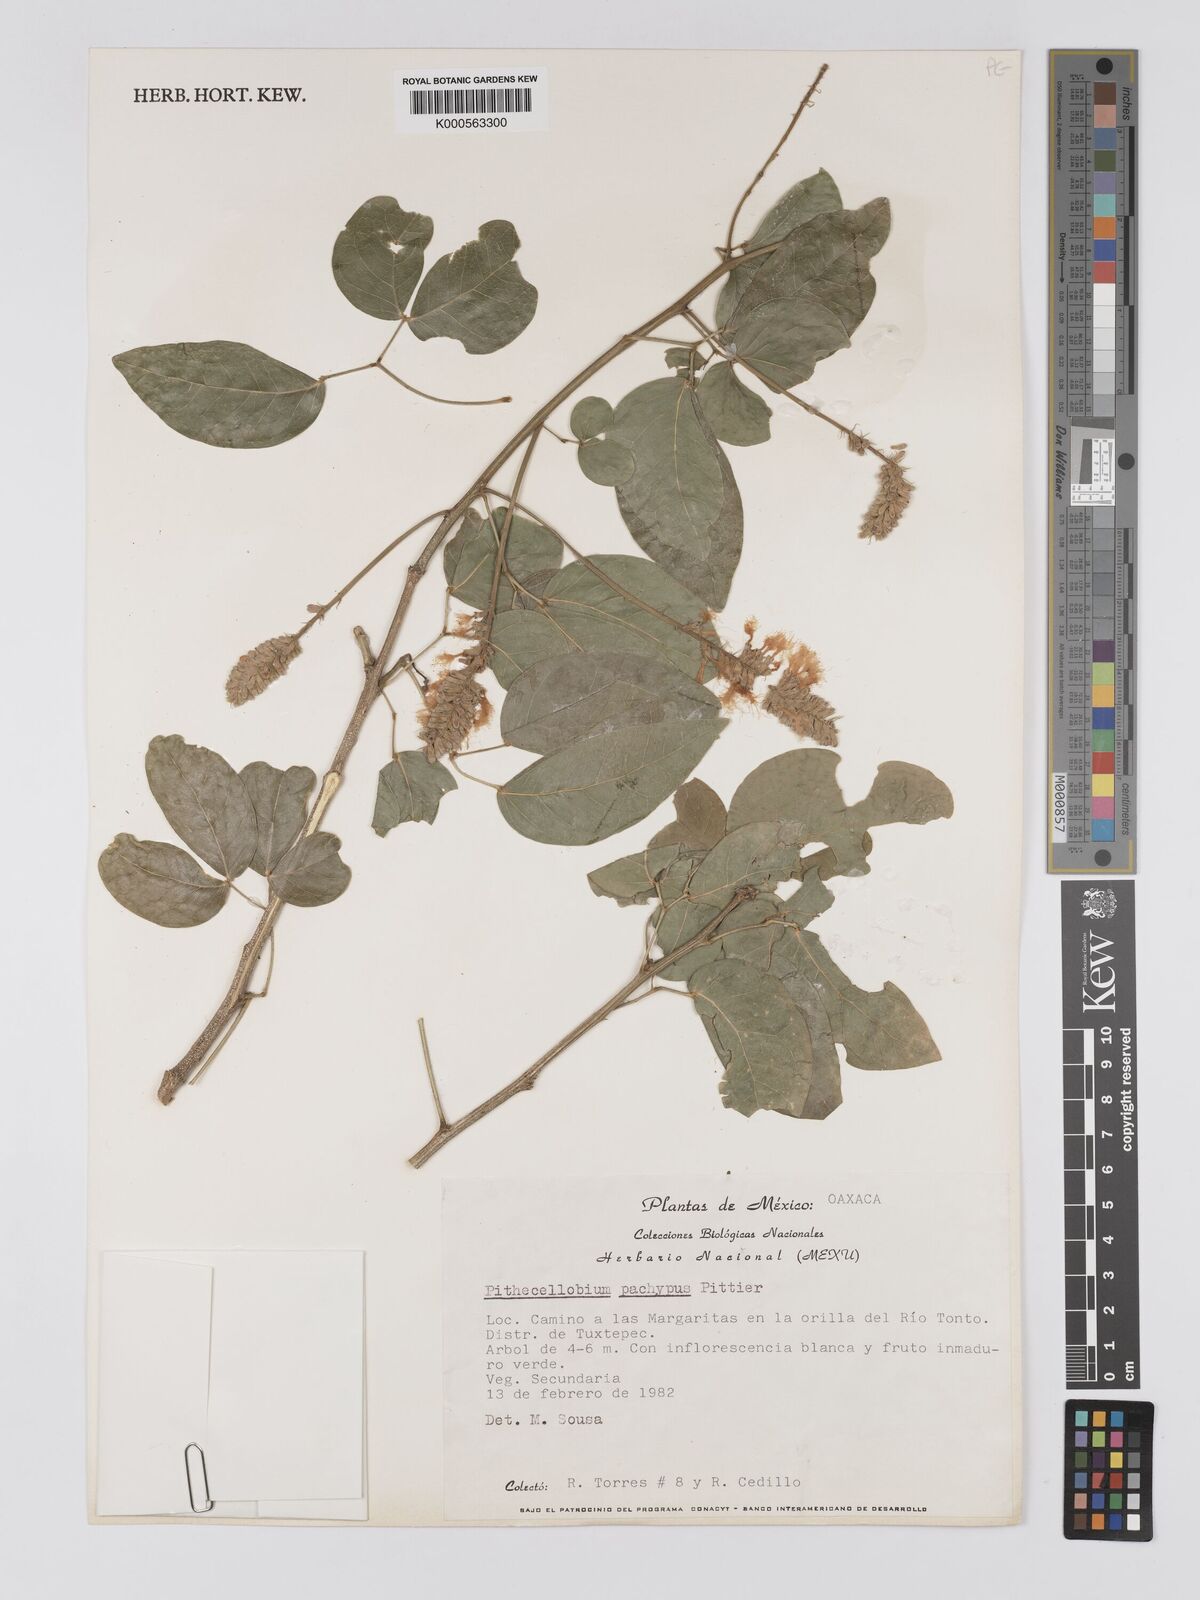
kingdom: Plantae
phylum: Tracheophyta
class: Magnoliopsida
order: Fabales
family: Fabaceae
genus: Pithecellobium
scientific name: Pithecellobium lanceolatum
